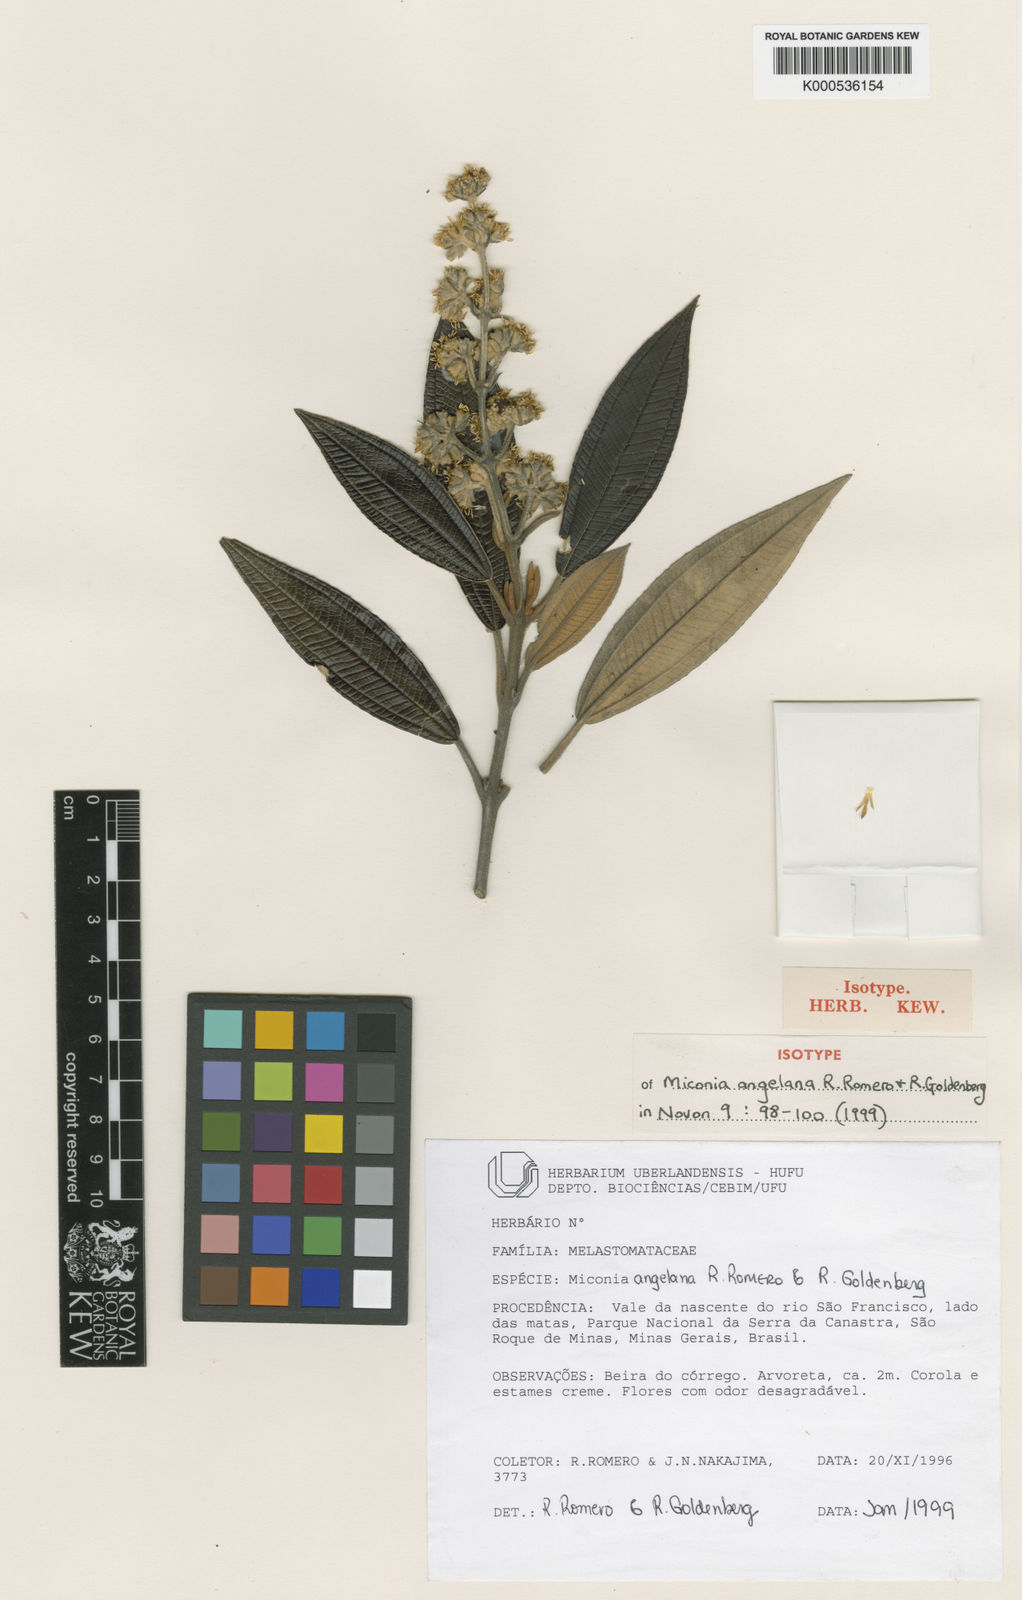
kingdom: Plantae
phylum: Tracheophyta
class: Magnoliopsida
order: Myrtales
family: Melastomataceae
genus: Miconia
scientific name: Miconia angelana
